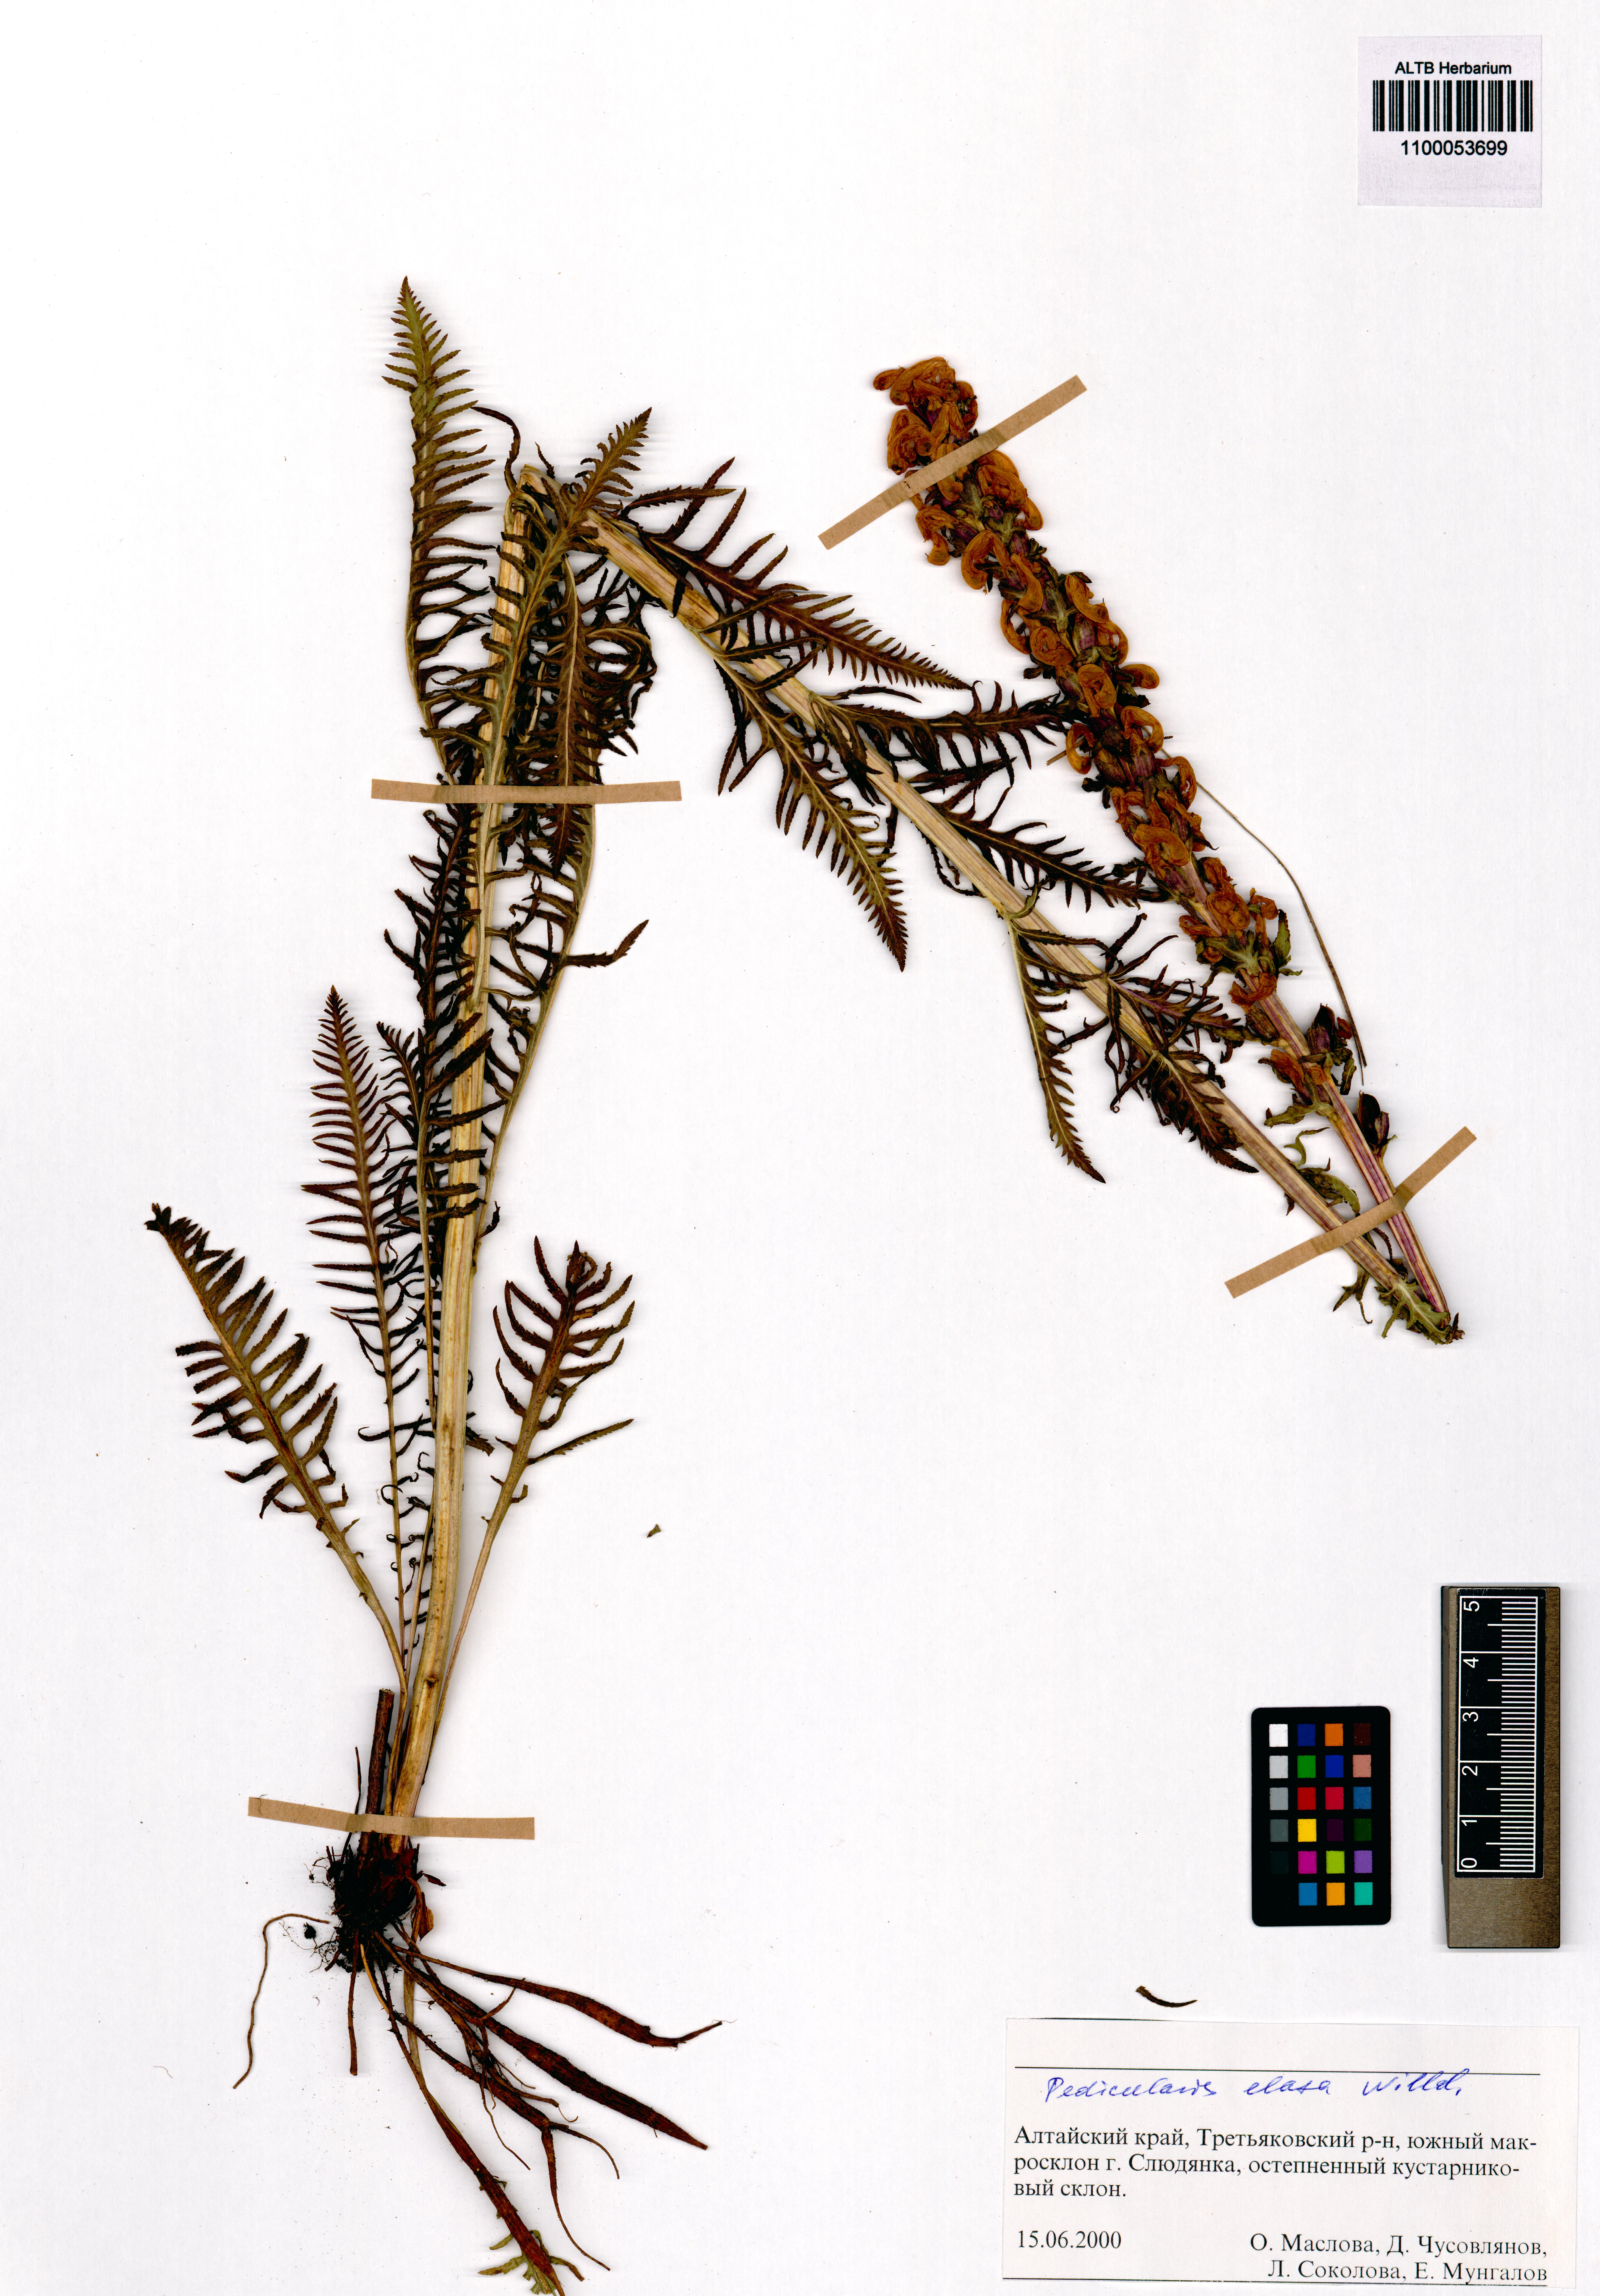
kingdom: Plantae
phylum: Tracheophyta
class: Magnoliopsida
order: Lamiales
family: Orobanchaceae
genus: Pedicularis
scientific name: Pedicularis elata
